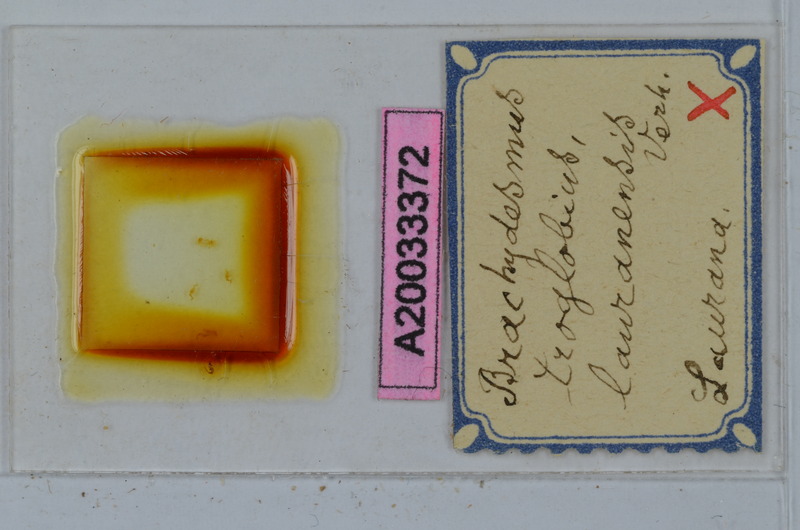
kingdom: Animalia
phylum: Arthropoda
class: Diplopoda
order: Polydesmida
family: Polydesmidae
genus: Brachydesmus
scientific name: Brachydesmus troglobius
